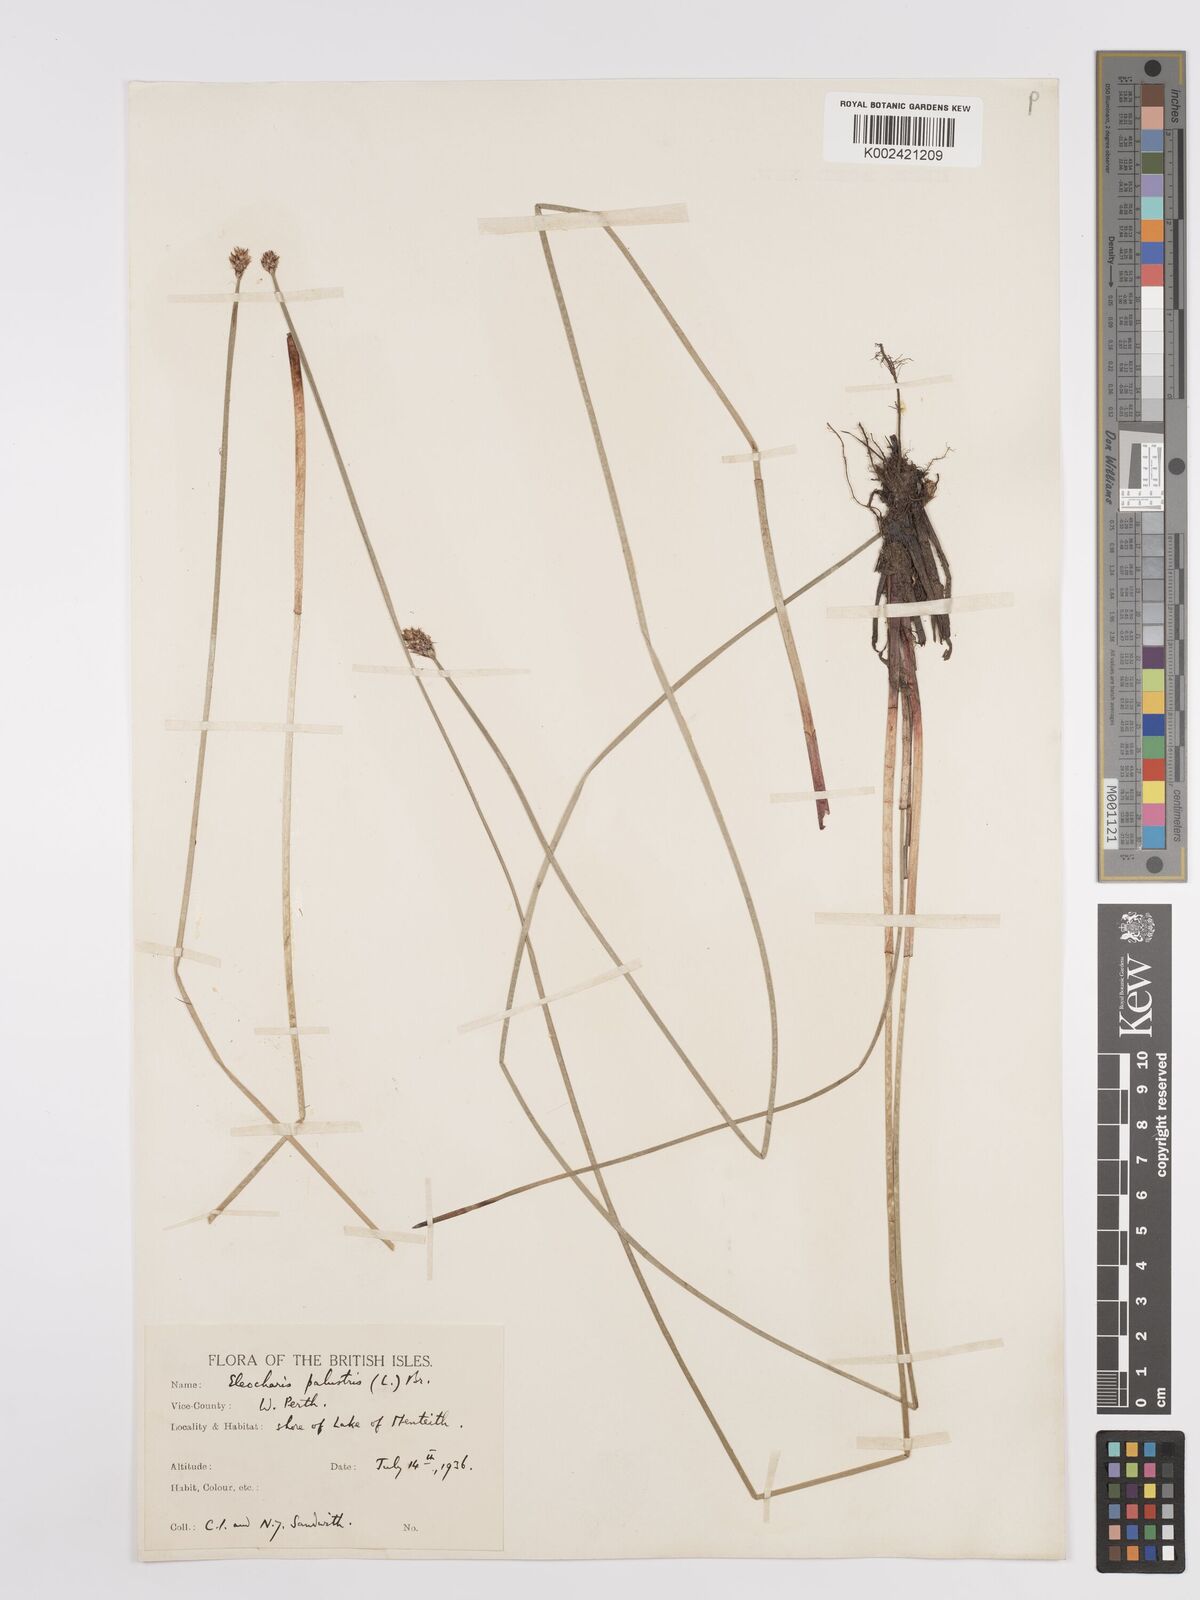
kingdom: Plantae
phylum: Tracheophyta
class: Liliopsida
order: Poales
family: Cyperaceae
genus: Eleocharis
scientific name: Eleocharis palustris
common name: Common spike-rush
